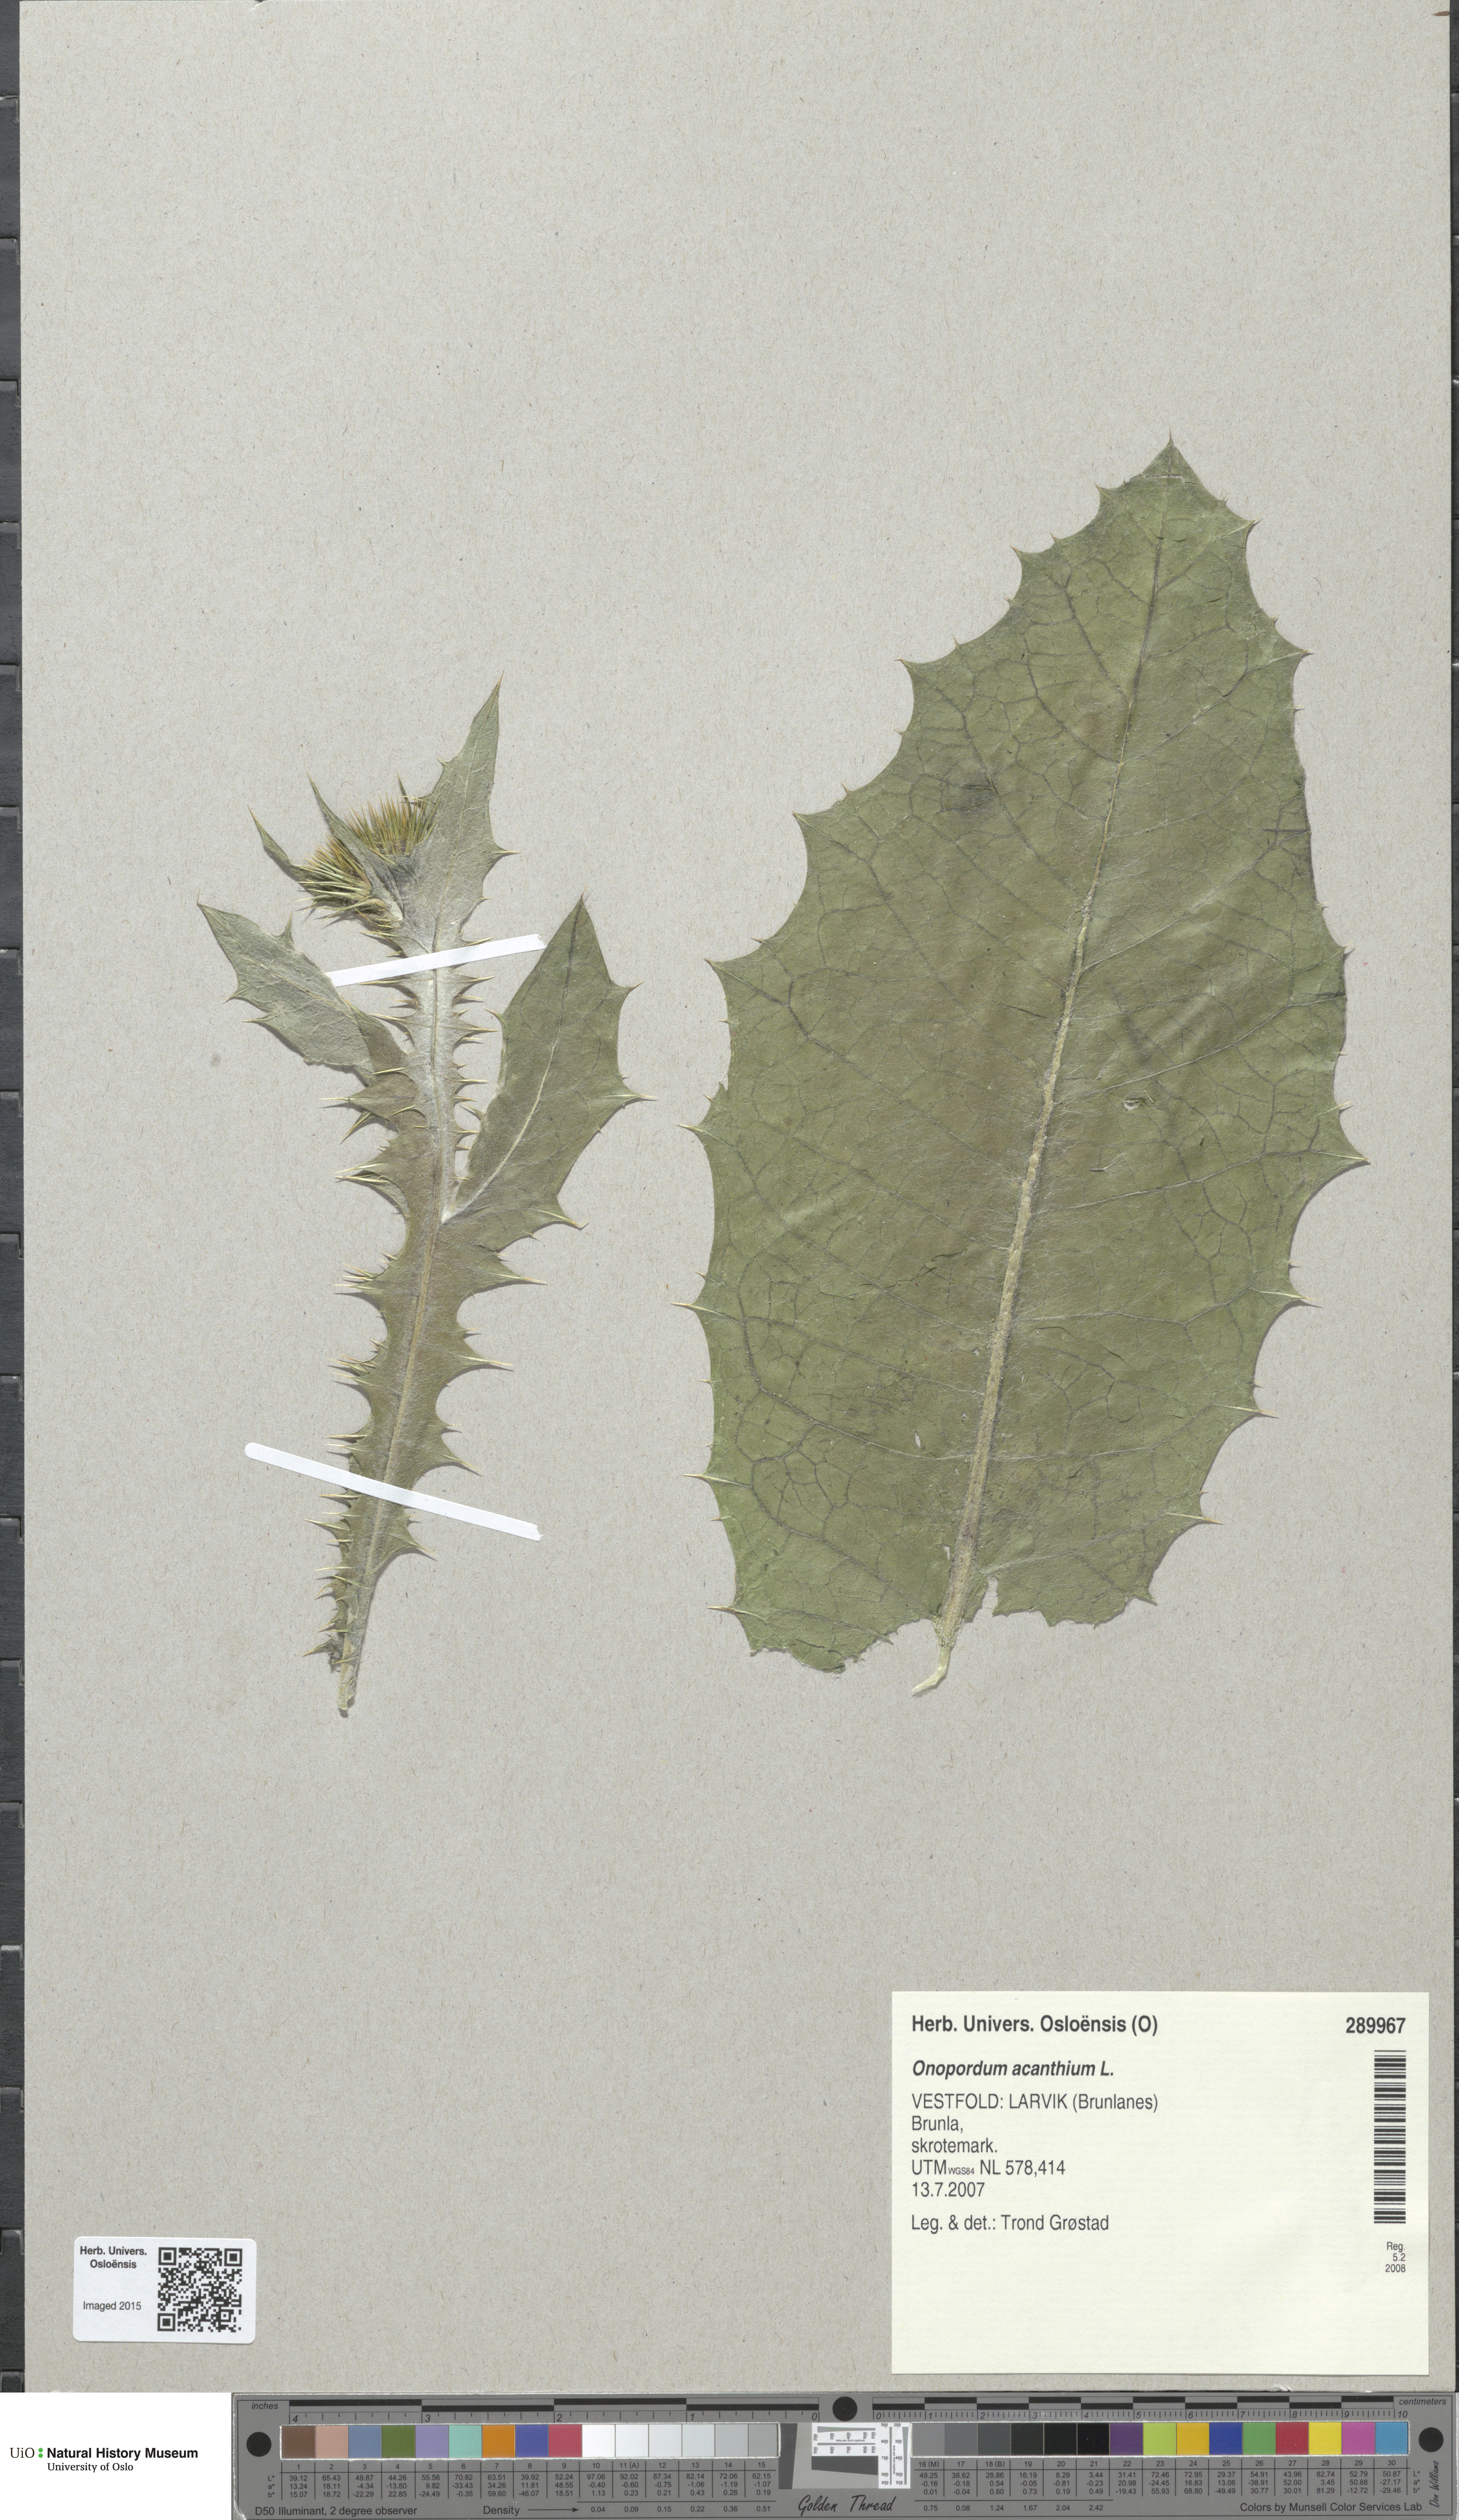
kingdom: Plantae
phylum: Tracheophyta
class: Magnoliopsida
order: Asterales
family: Asteraceae
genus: Onopordum
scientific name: Onopordum acanthium
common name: Scotch thistle
